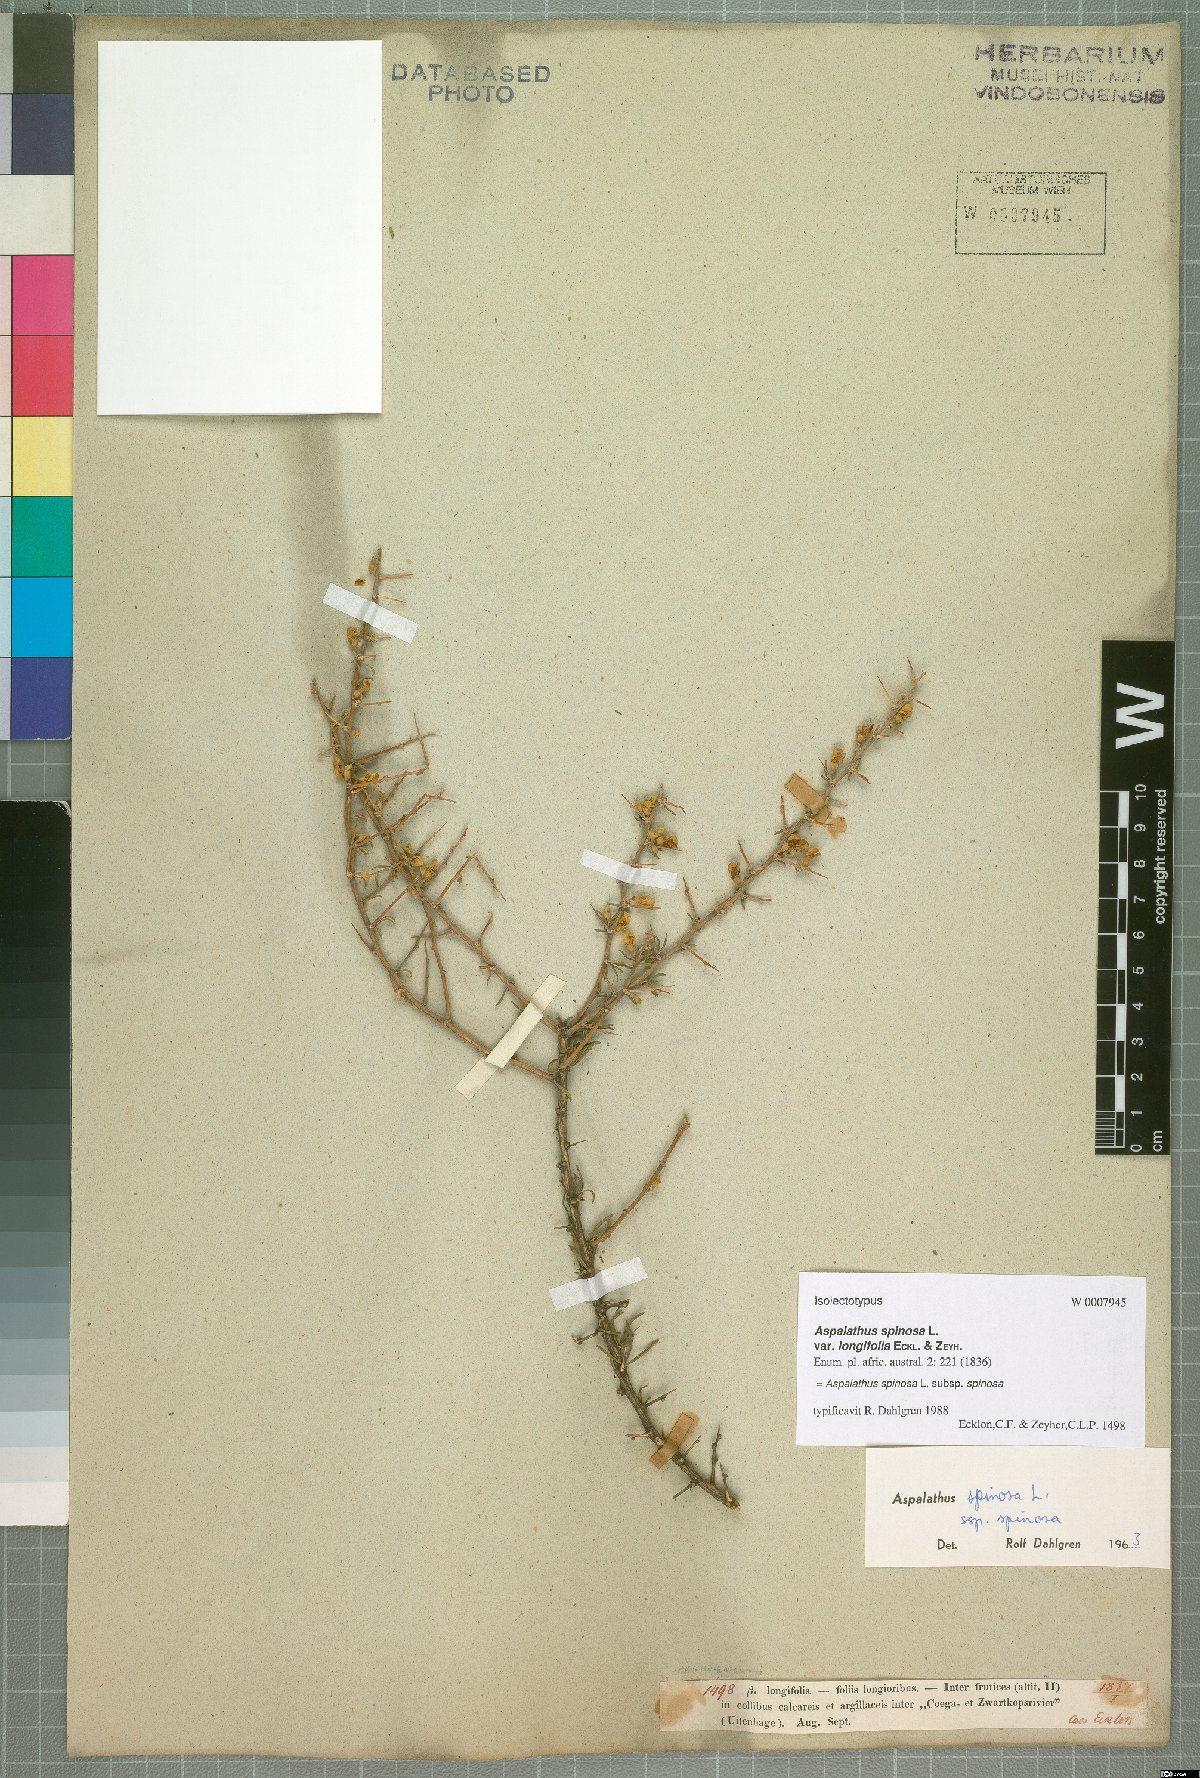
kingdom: Plantae
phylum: Tracheophyta
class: Magnoliopsida
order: Fabales
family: Fabaceae
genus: Aspalathus
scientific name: Aspalathus spinosa
